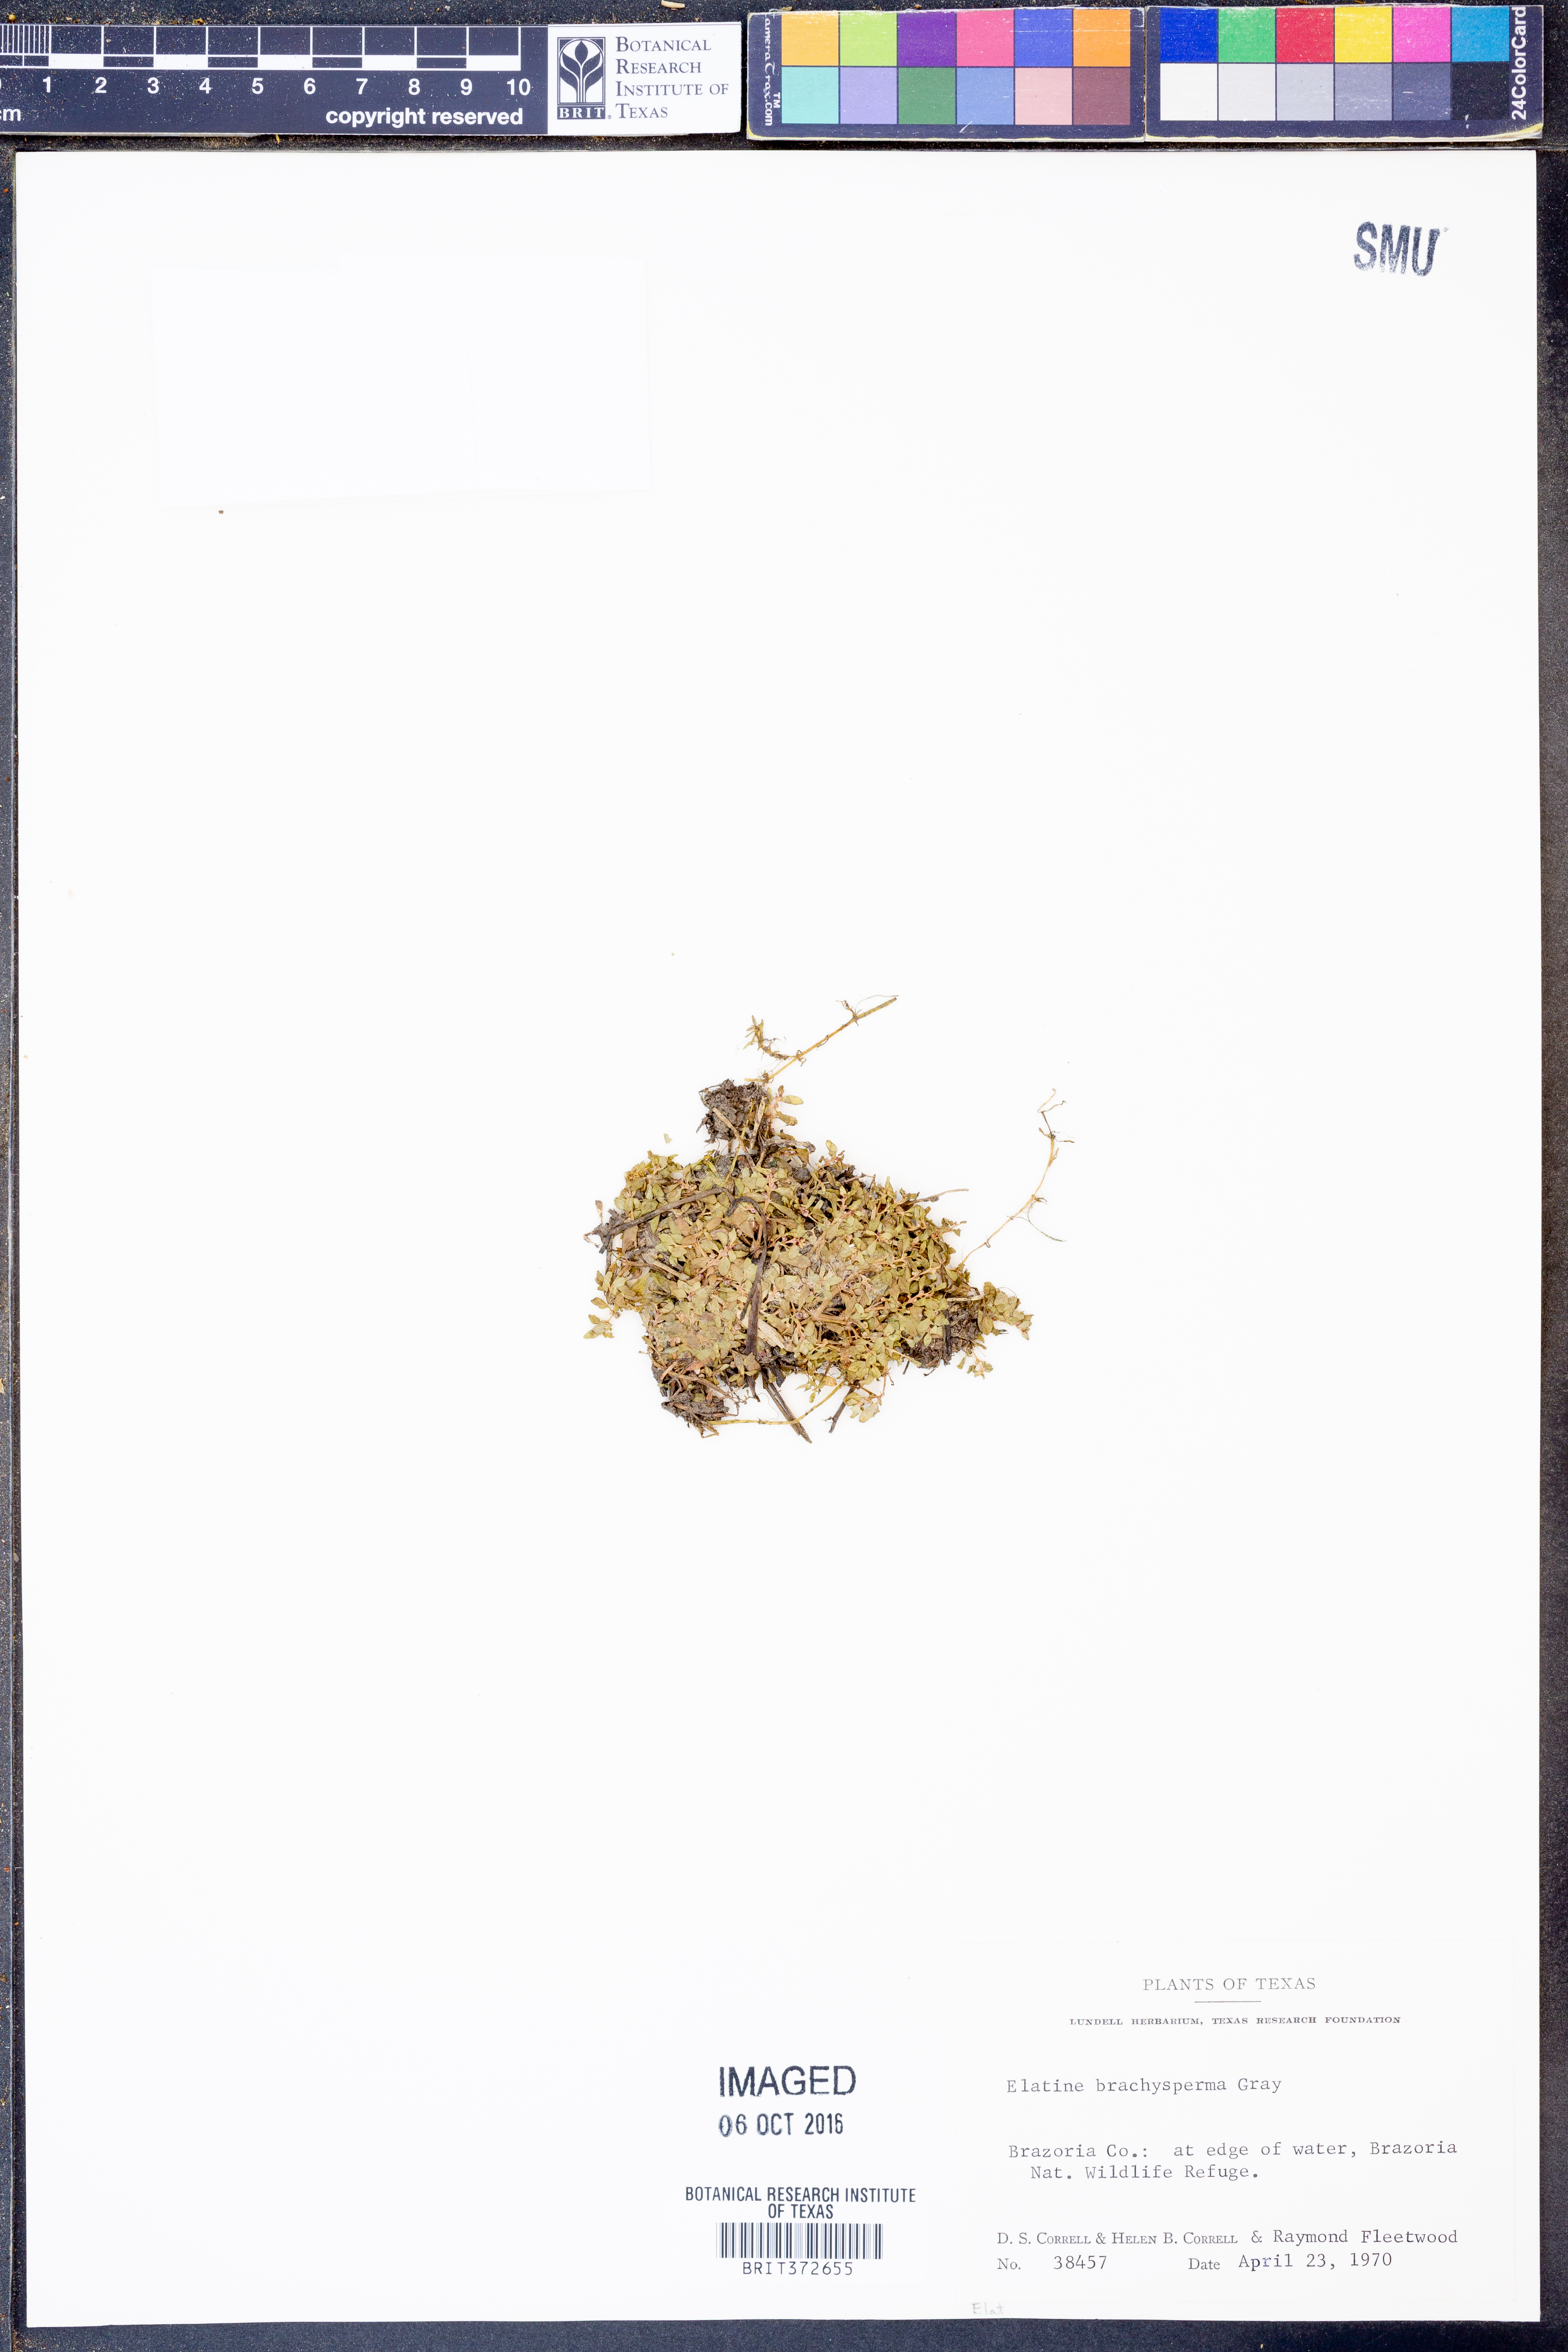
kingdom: Plantae
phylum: Tracheophyta
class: Magnoliopsida
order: Malpighiales
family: Elatinaceae
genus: Elatine
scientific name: Elatine brachysperma
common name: Short-fruited waterwort
